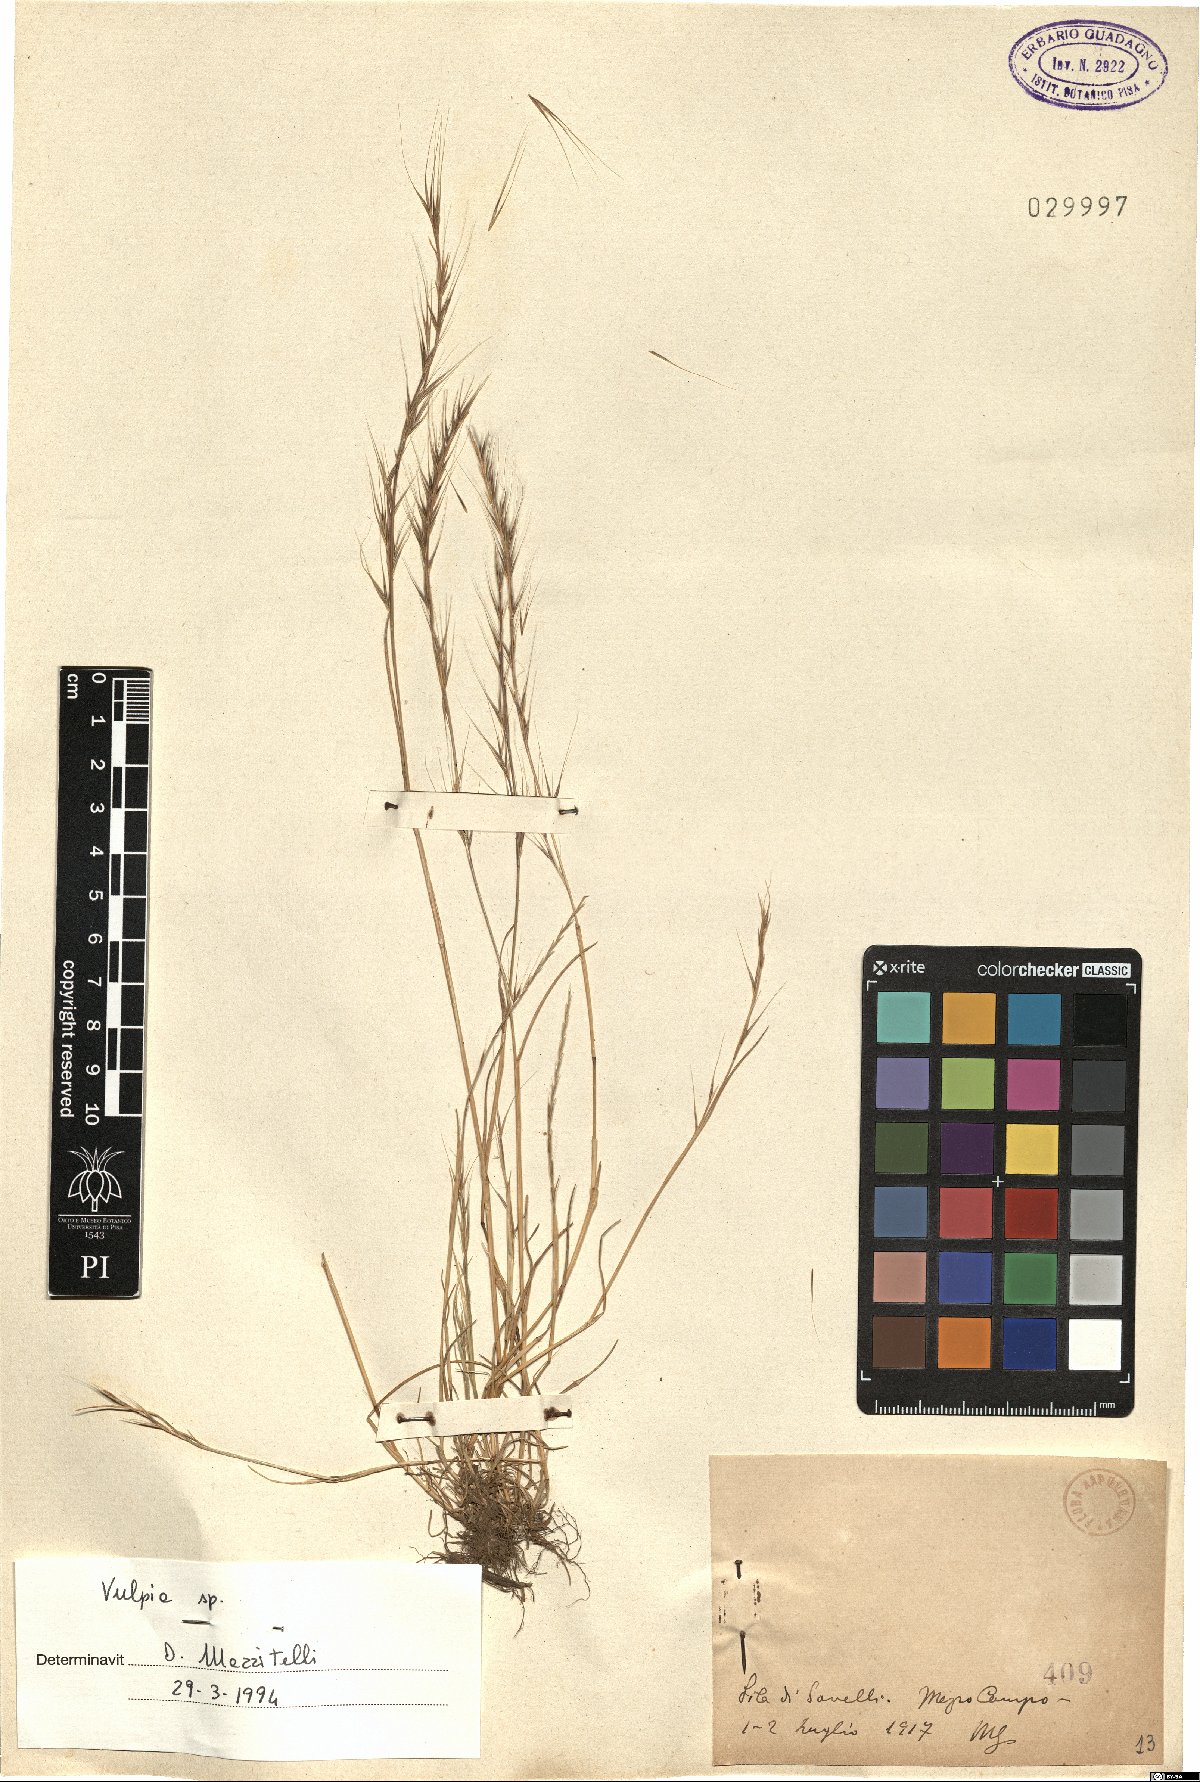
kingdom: Plantae
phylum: Tracheophyta
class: Liliopsida
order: Poales
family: Poaceae
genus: Festuca
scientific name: Festuca
